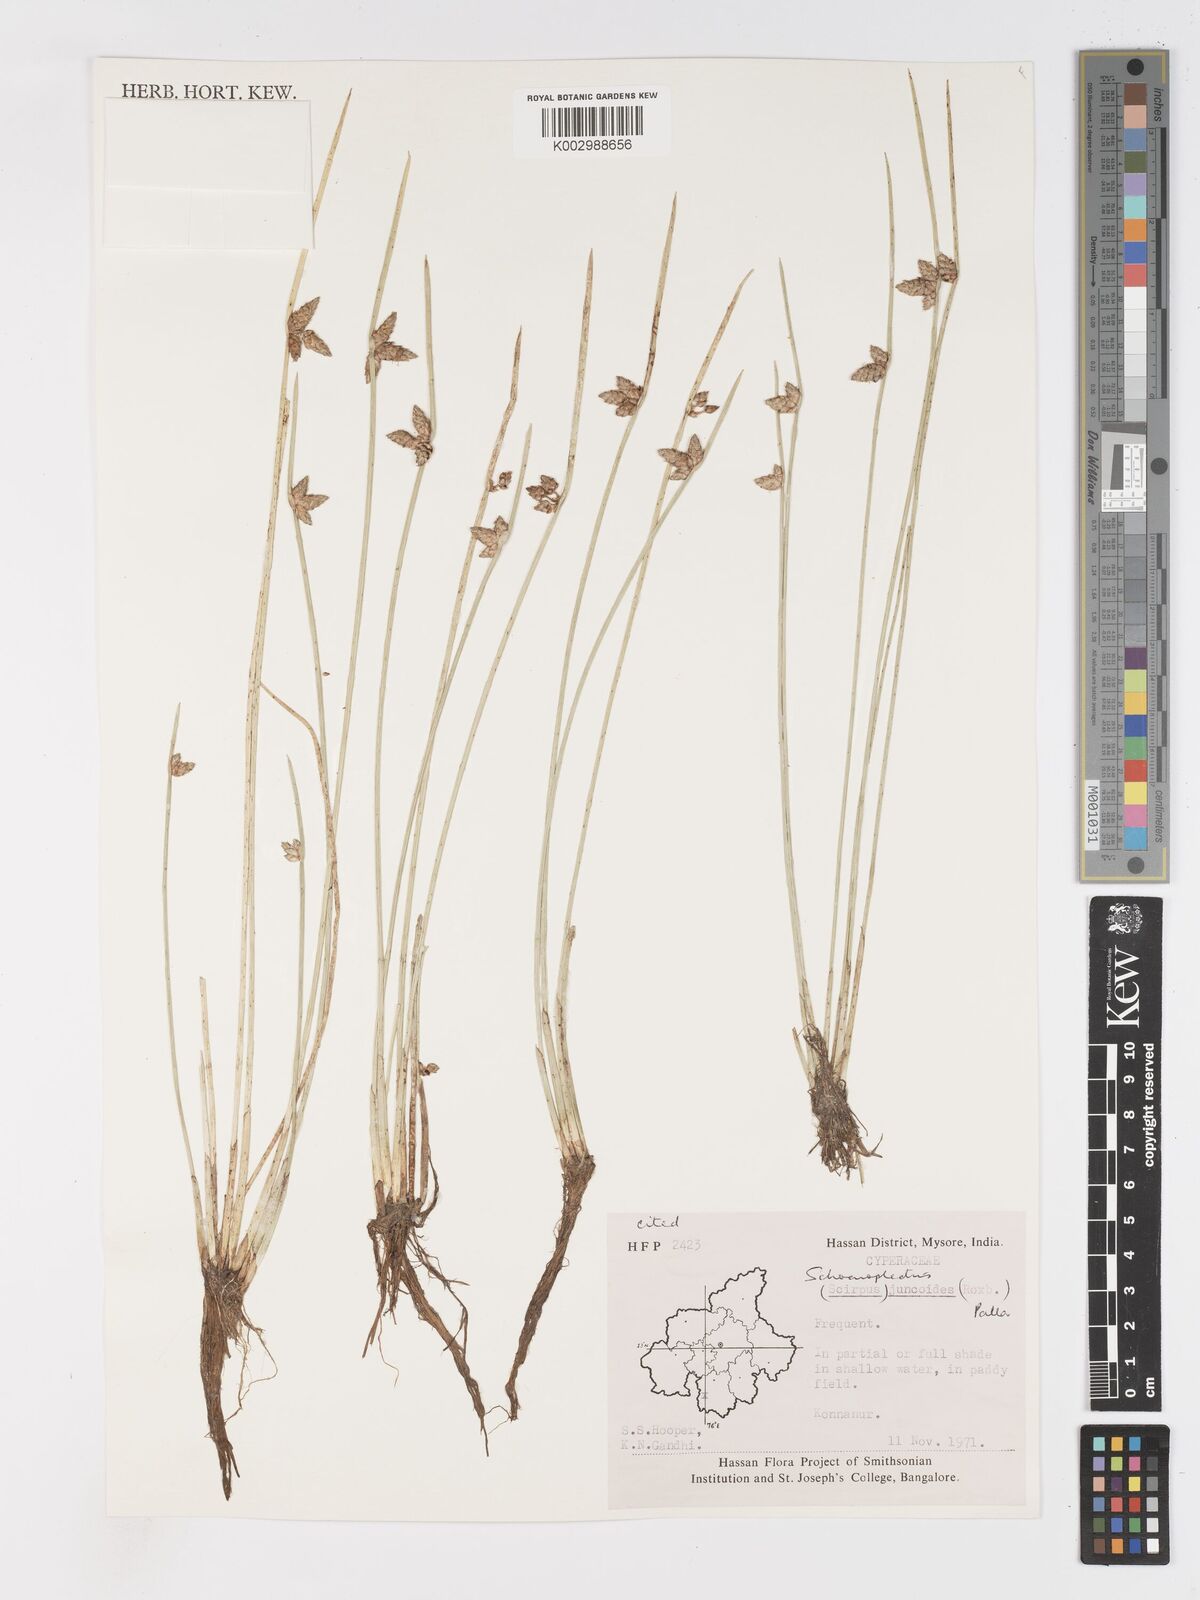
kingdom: Plantae
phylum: Tracheophyta
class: Liliopsida
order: Poales
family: Cyperaceae
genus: Schoenoplectiella
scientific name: Schoenoplectiella juncoides
